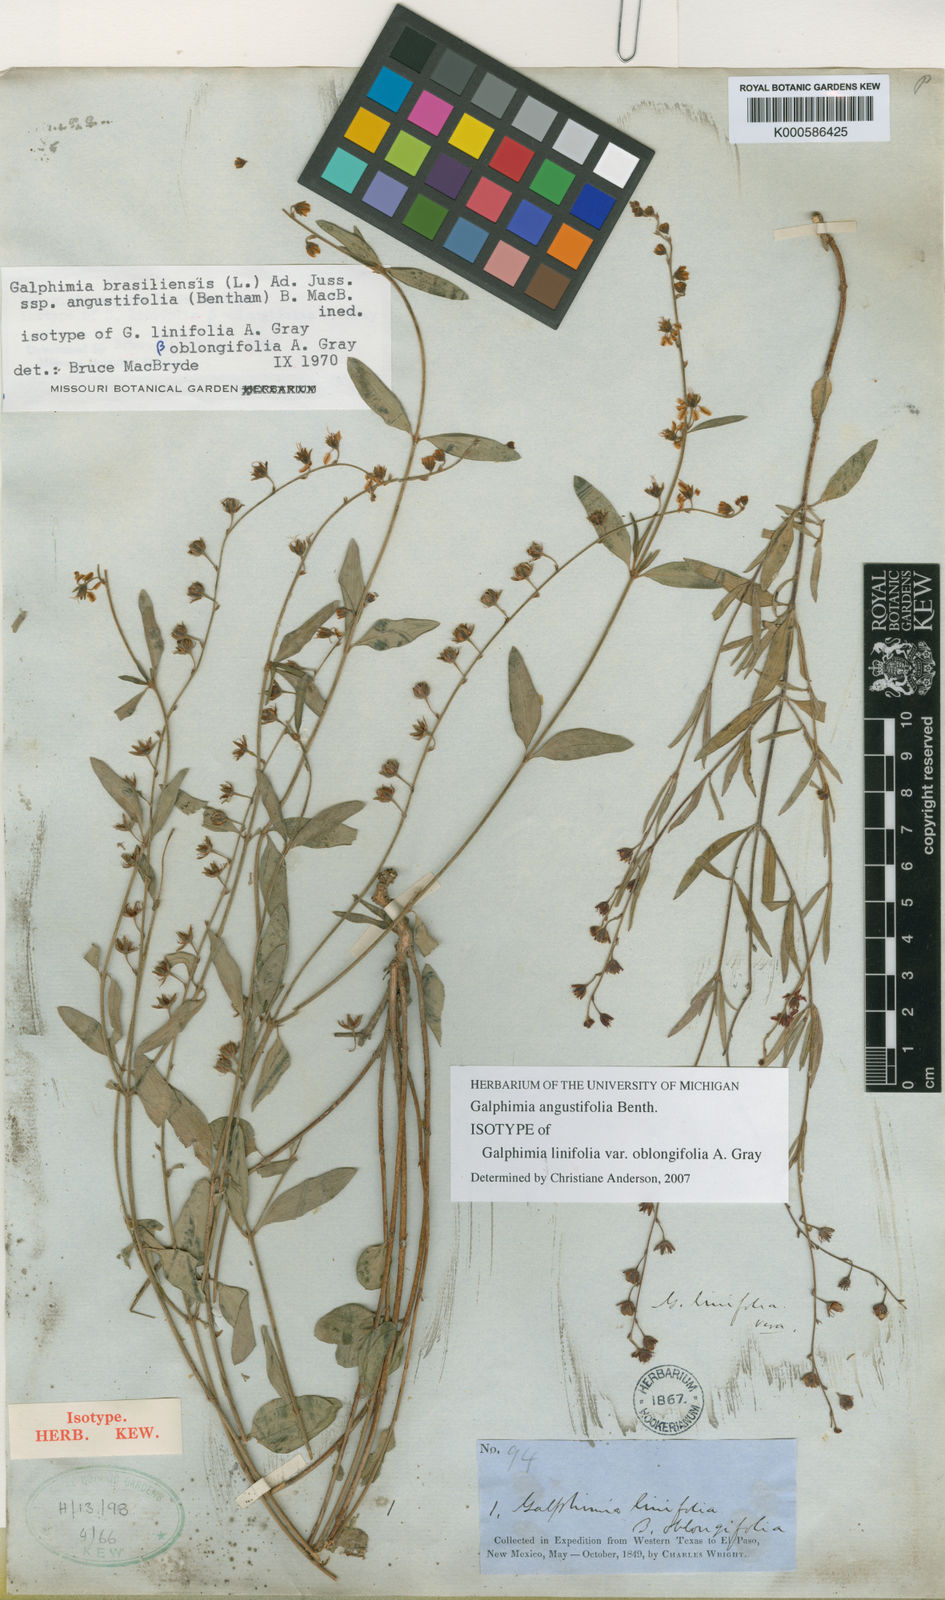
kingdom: Plantae
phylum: Tracheophyta
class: Magnoliopsida
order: Malpighiales
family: Malpighiaceae
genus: Galphimia
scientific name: Galphimia brasiliensis
